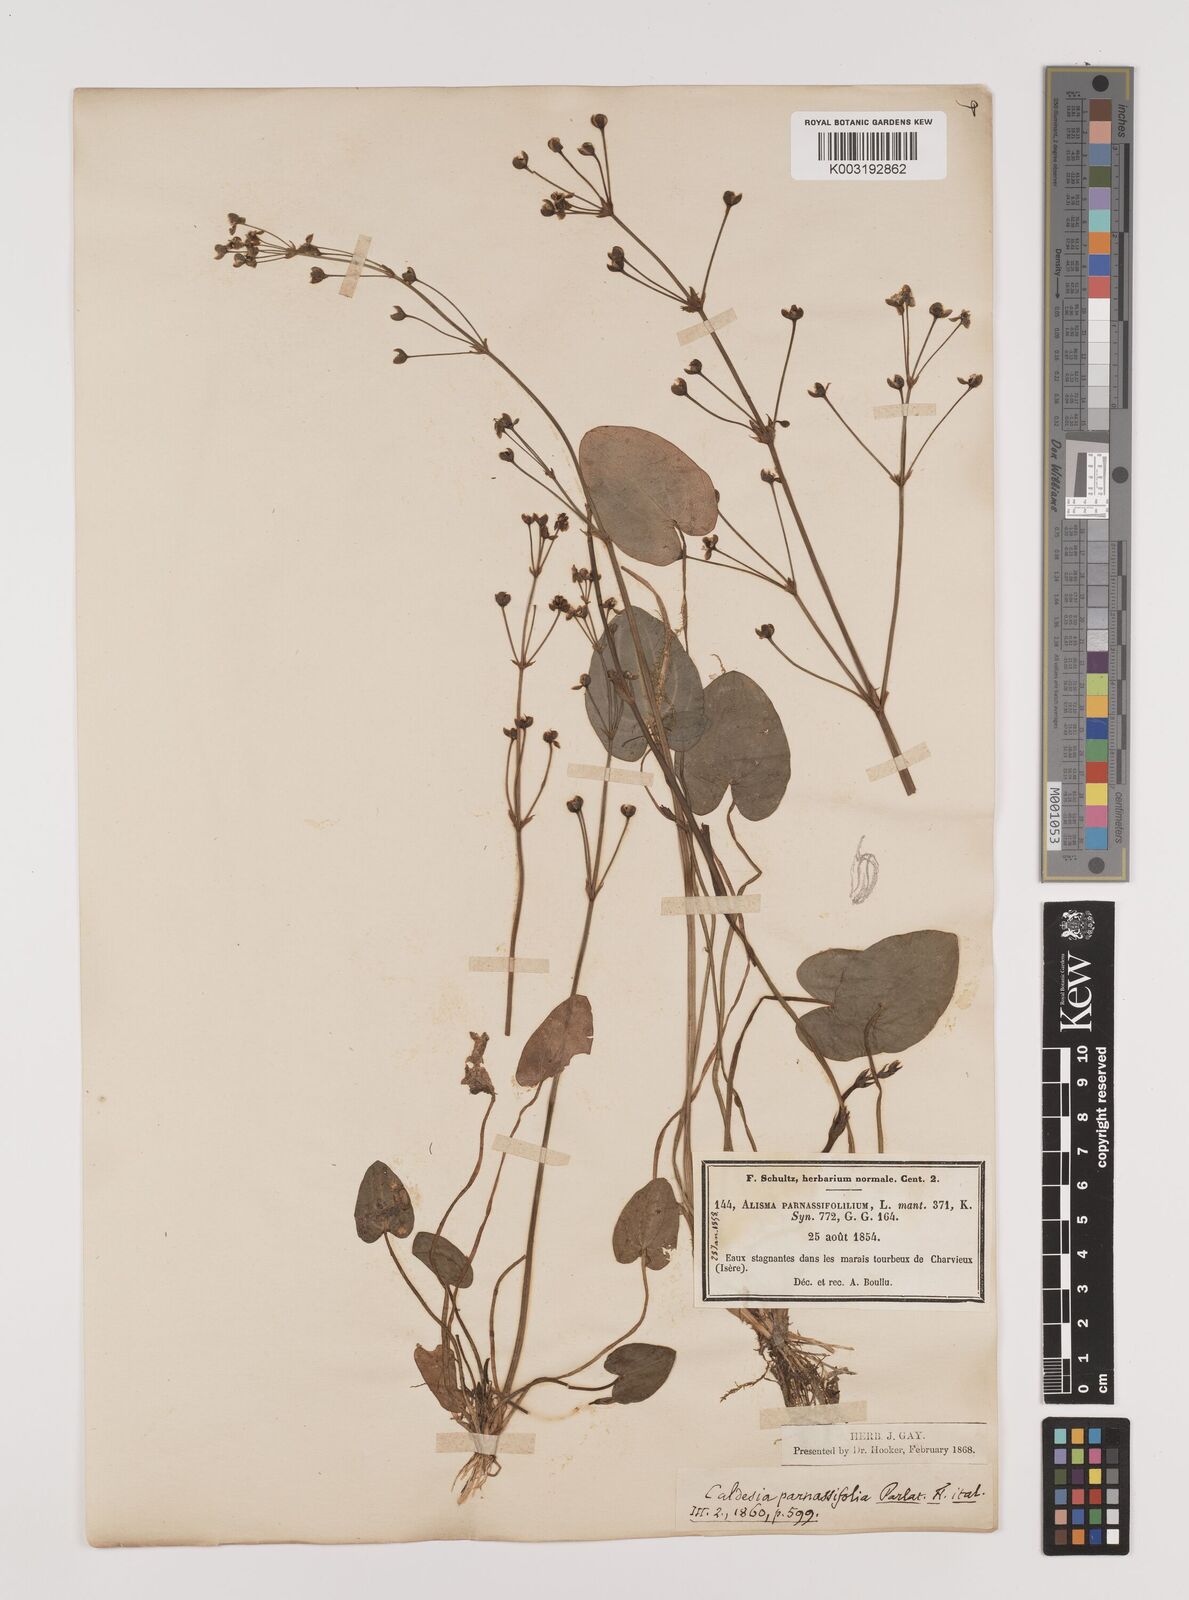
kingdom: Plantae
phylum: Tracheophyta
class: Liliopsida
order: Alismatales
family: Alismataceae
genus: Caldesia
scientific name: Caldesia parnassifolia
